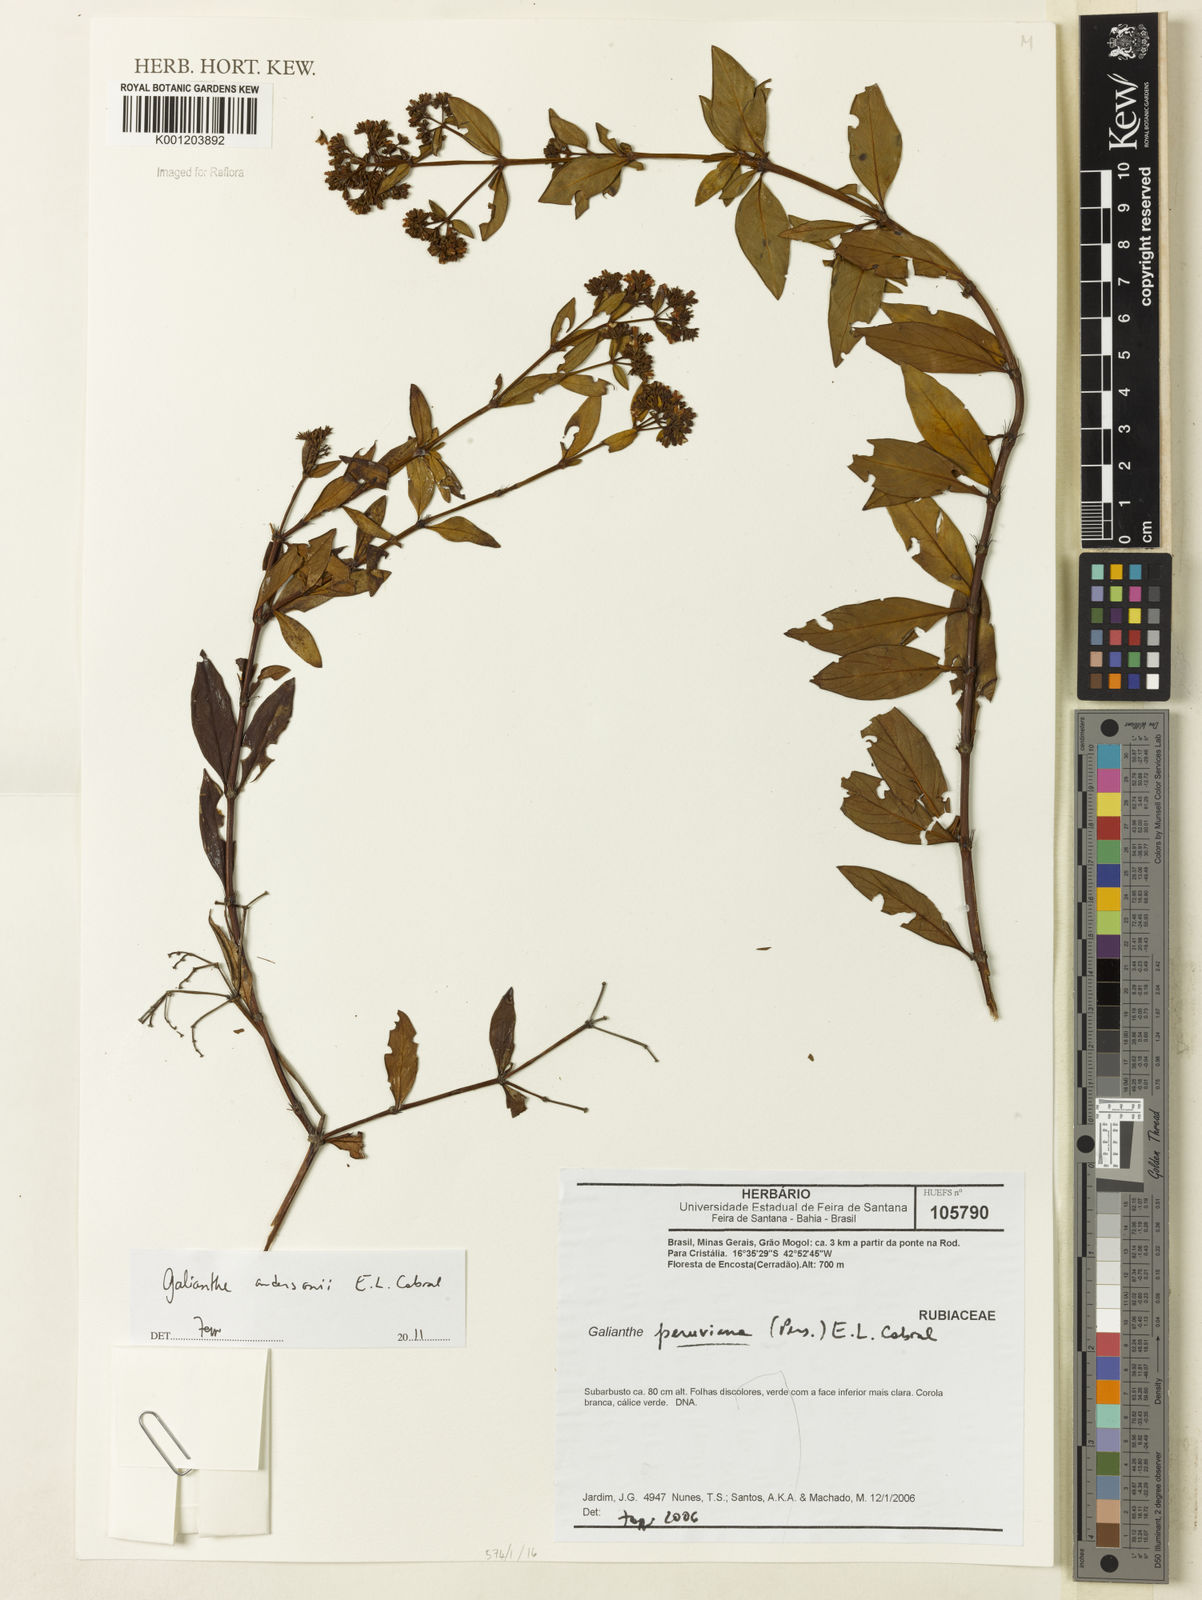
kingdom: Plantae
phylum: Tracheophyta
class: Magnoliopsida
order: Gentianales
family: Rubiaceae
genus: Galianthe
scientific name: Galianthe andersonii
